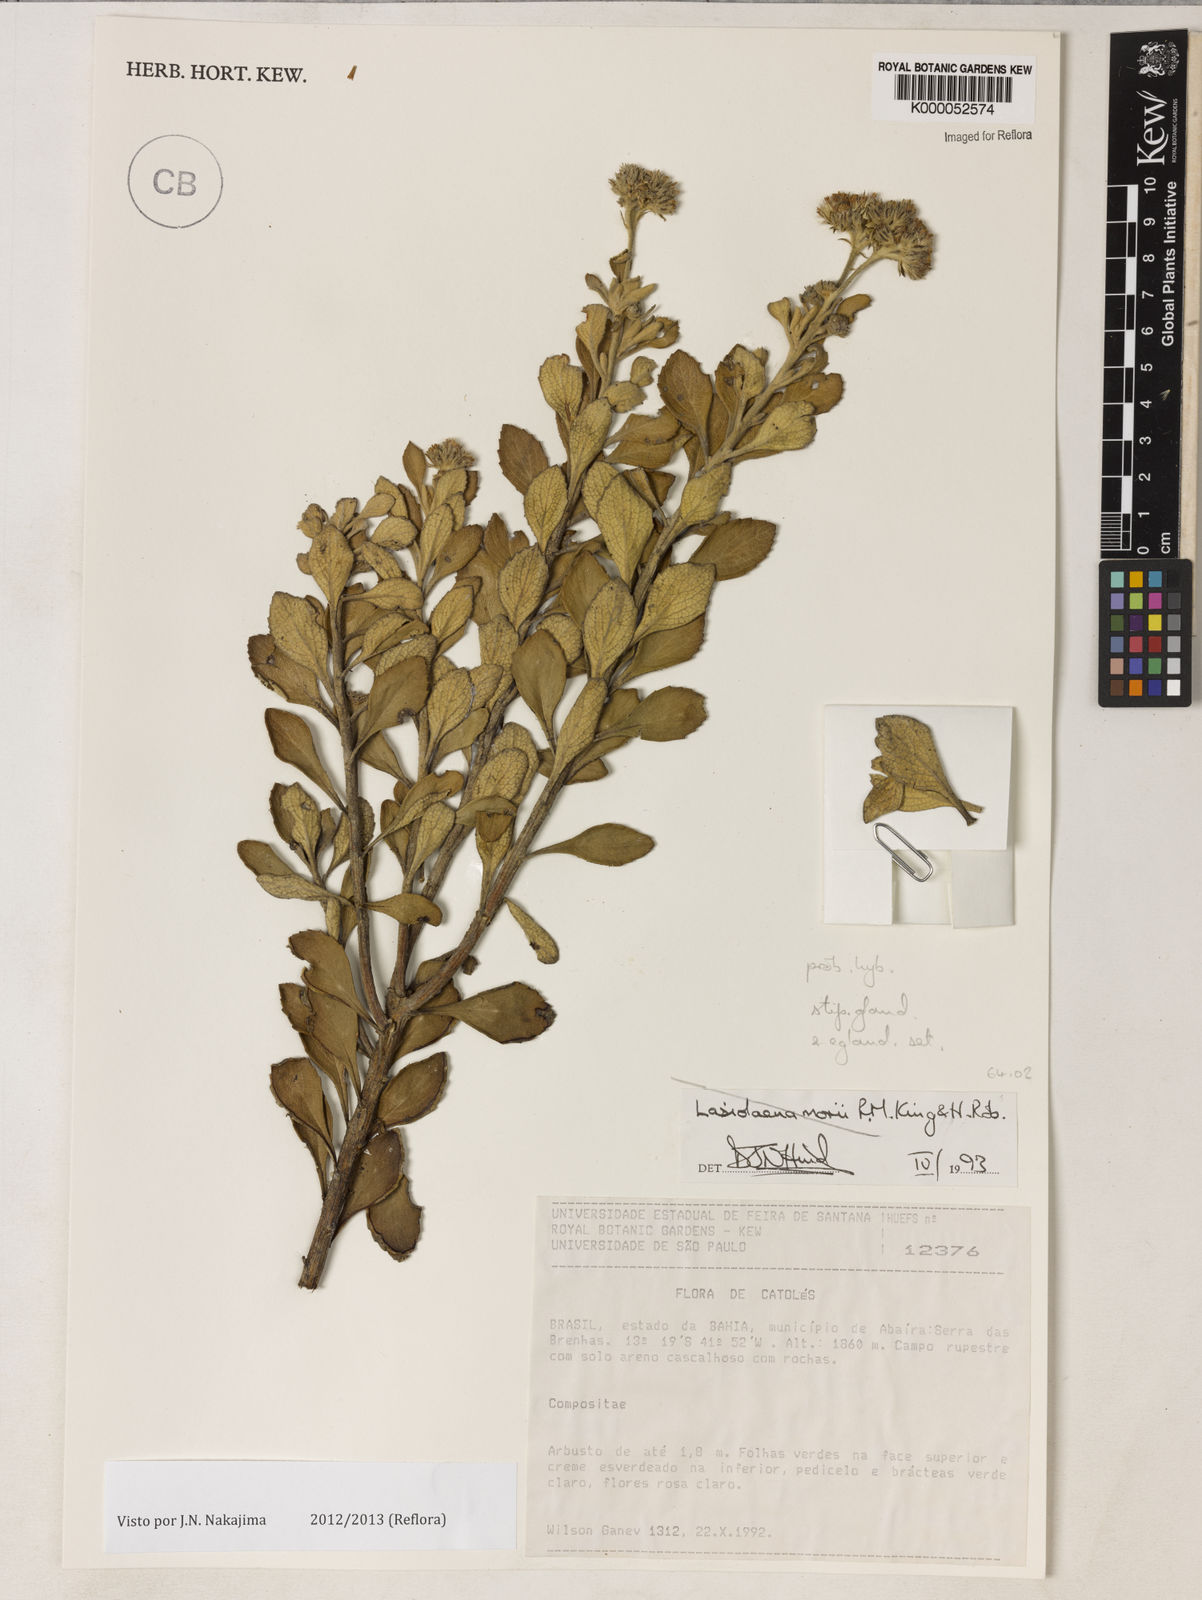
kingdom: Plantae
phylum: Tracheophyta
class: Magnoliopsida
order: Asterales
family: Asteraceae
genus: Lasiolaena
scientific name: Lasiolaena
